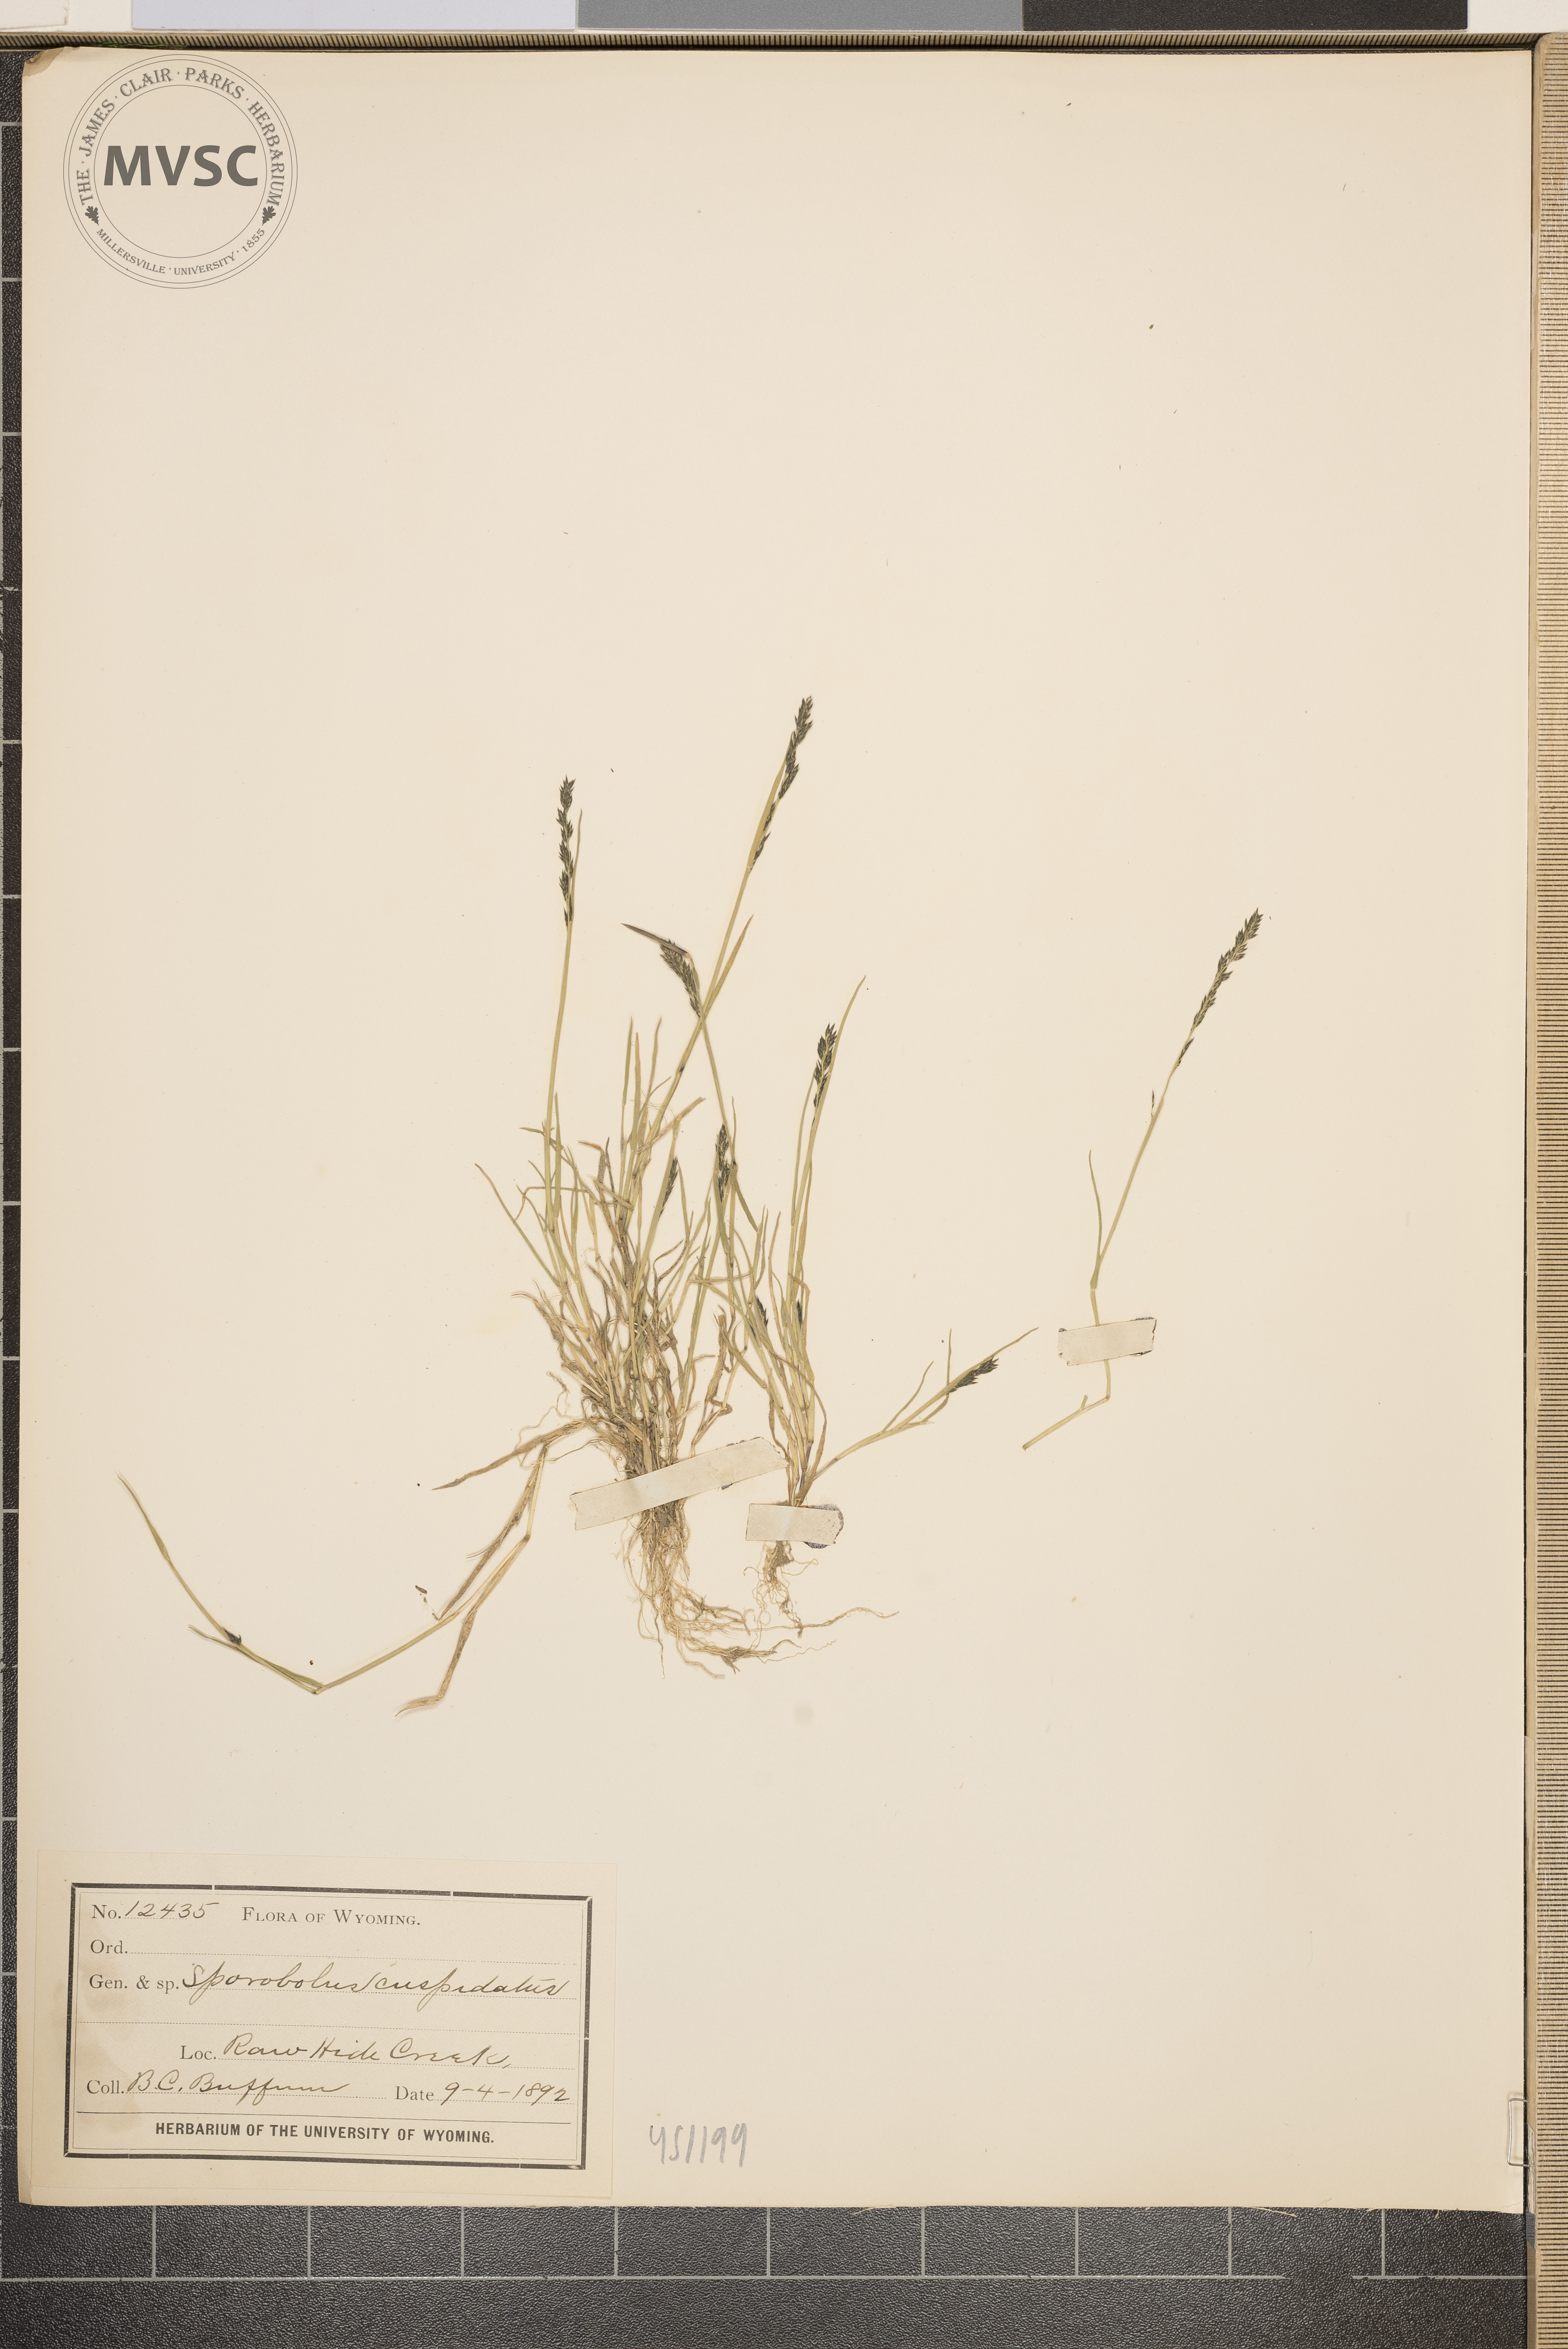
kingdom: Plantae
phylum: Tracheophyta
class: Liliopsida
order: Poales
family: Poaceae
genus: Muhlenbergia
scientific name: Muhlenbergia cuspidata
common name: Plains muhly
